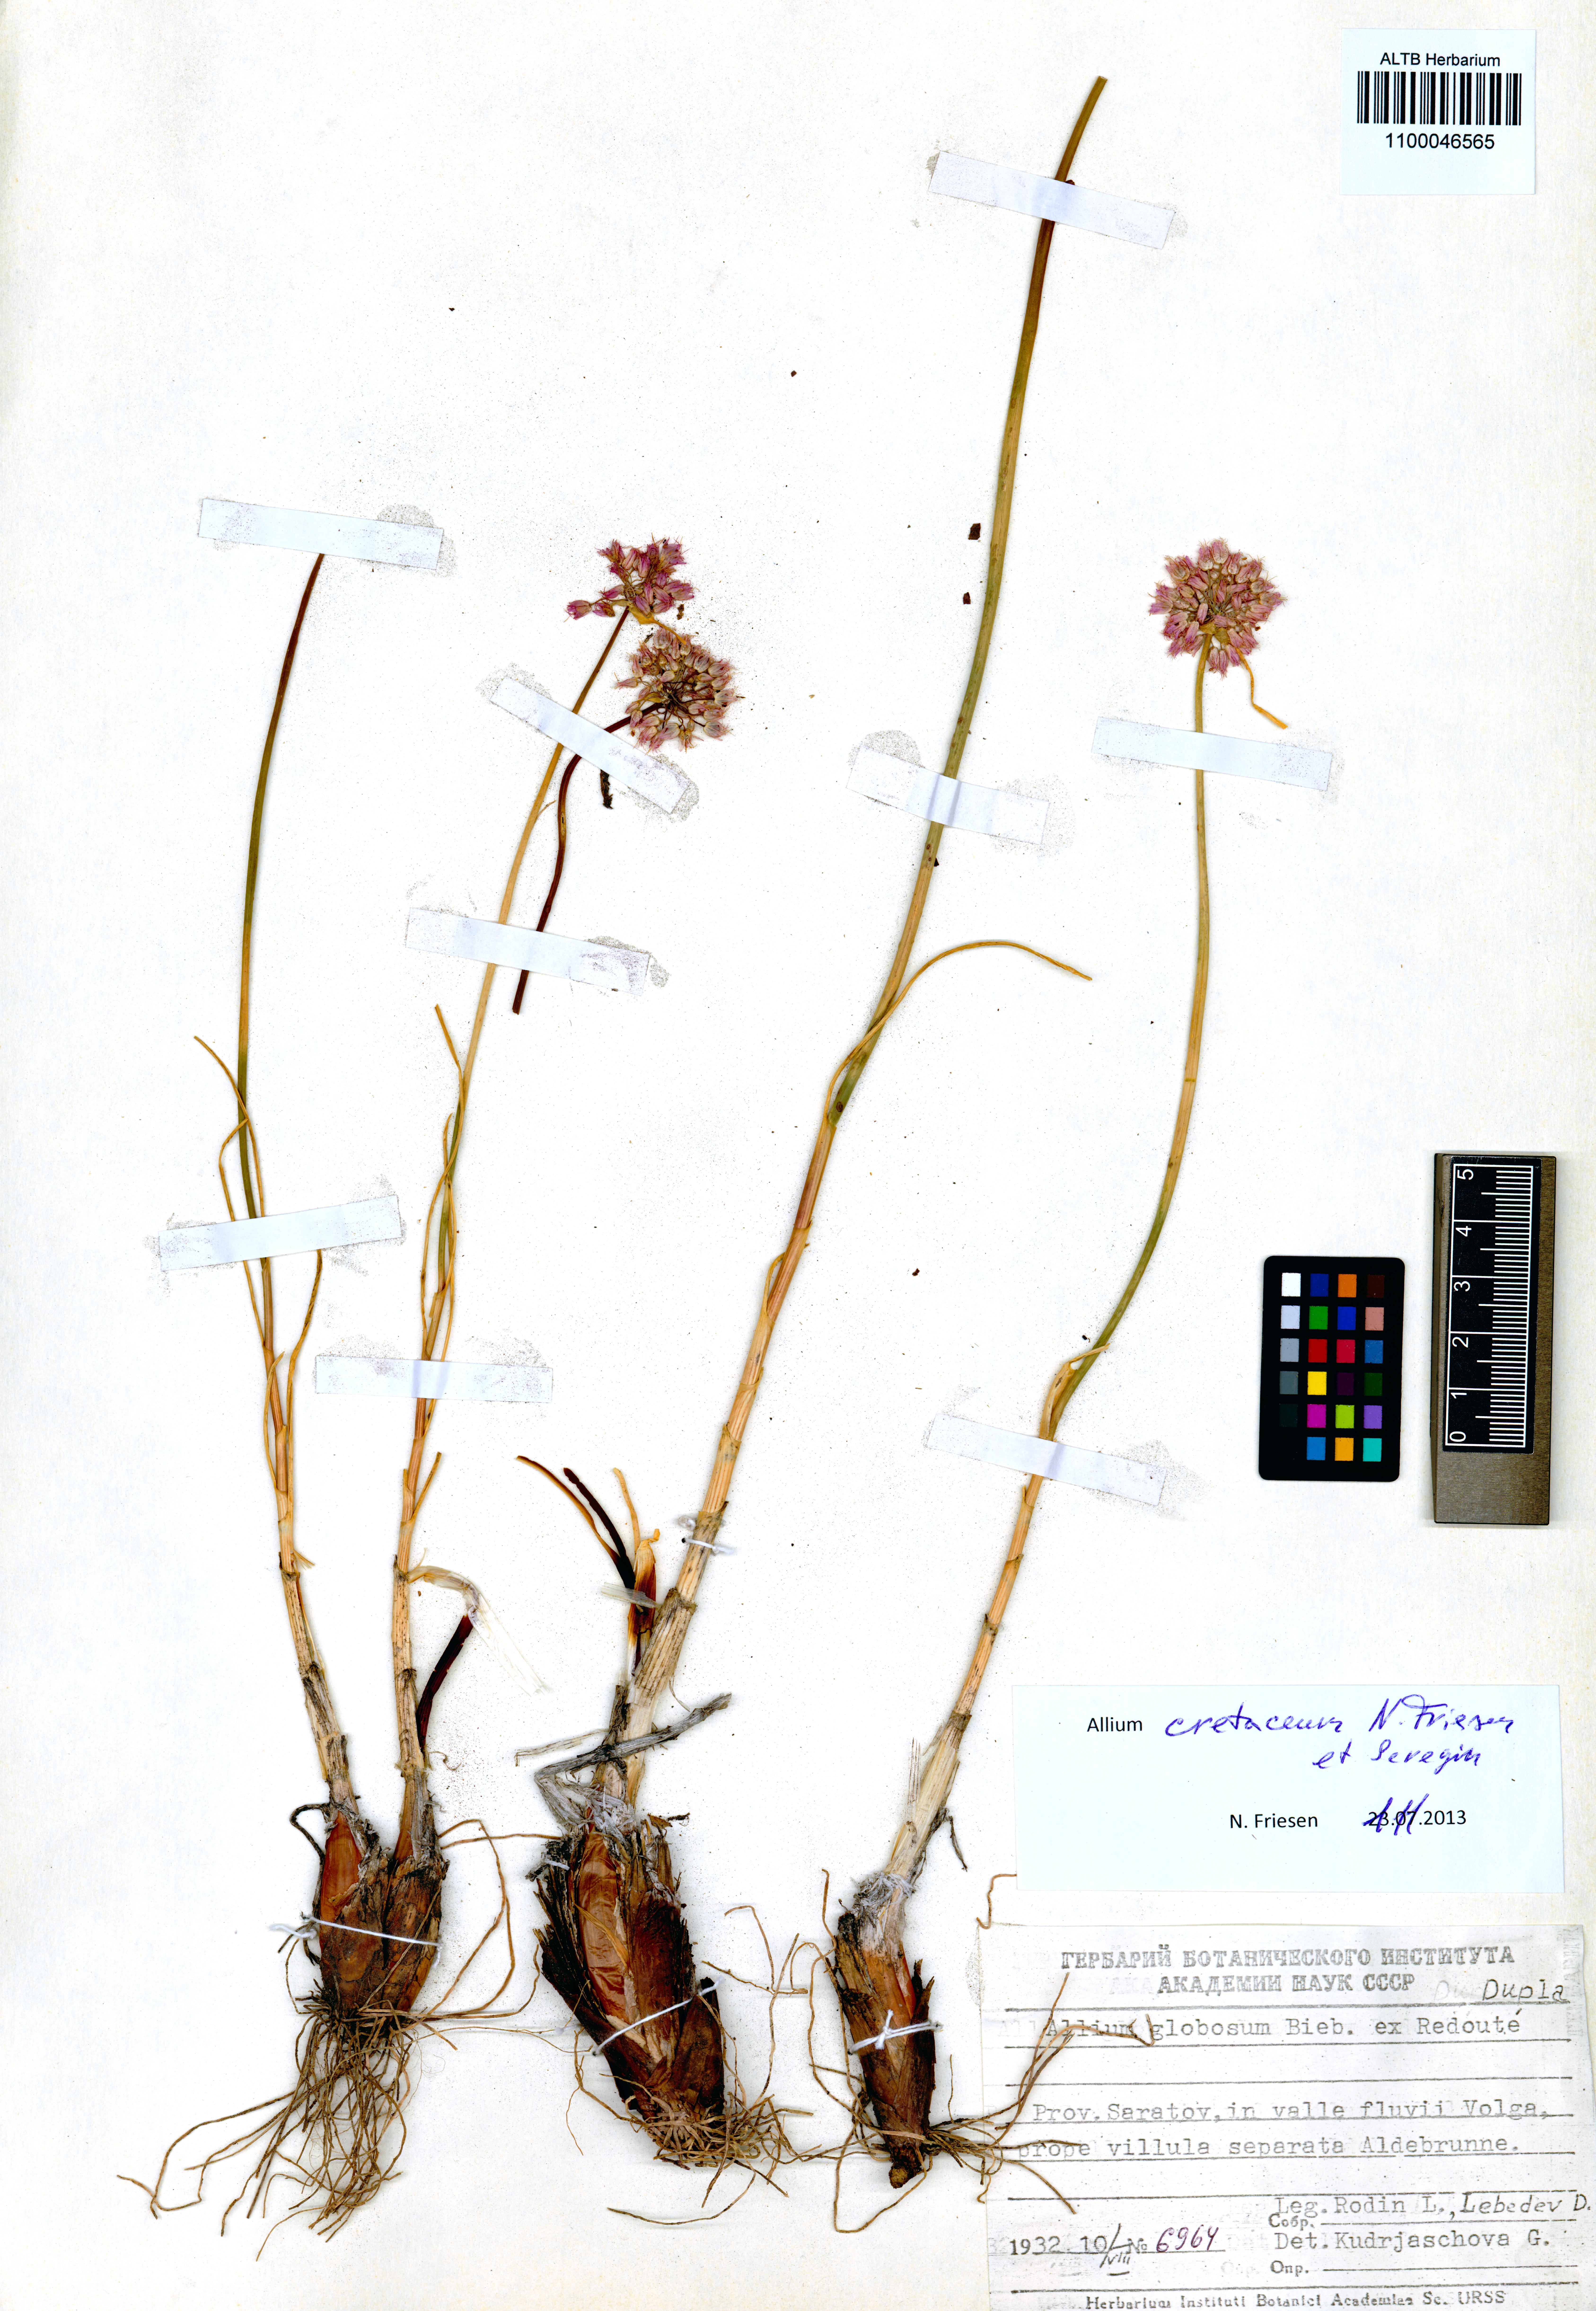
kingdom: Plantae
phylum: Tracheophyta
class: Liliopsida
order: Asparagales
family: Amaryllidaceae
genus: Allium
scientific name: Allium cretaceum
